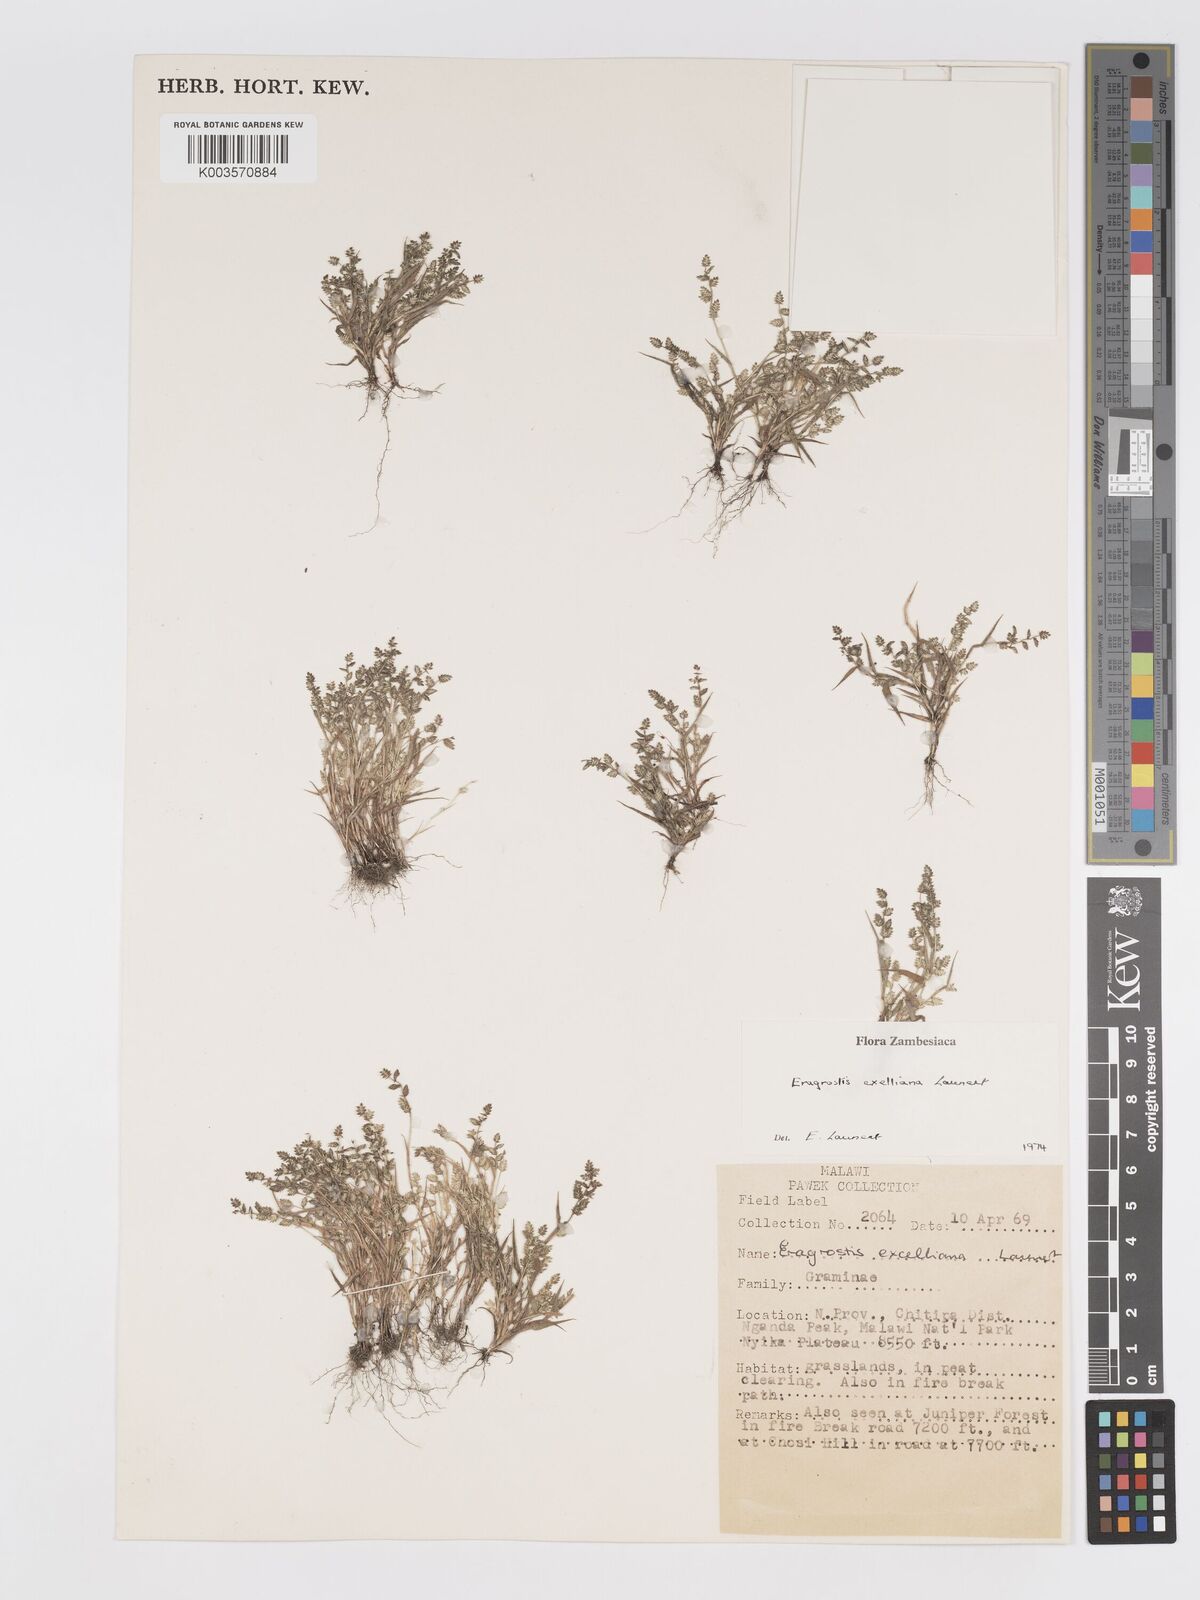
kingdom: Plantae
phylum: Tracheophyta
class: Liliopsida
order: Poales
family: Poaceae
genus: Eragrostis
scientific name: Eragrostis exelliana
